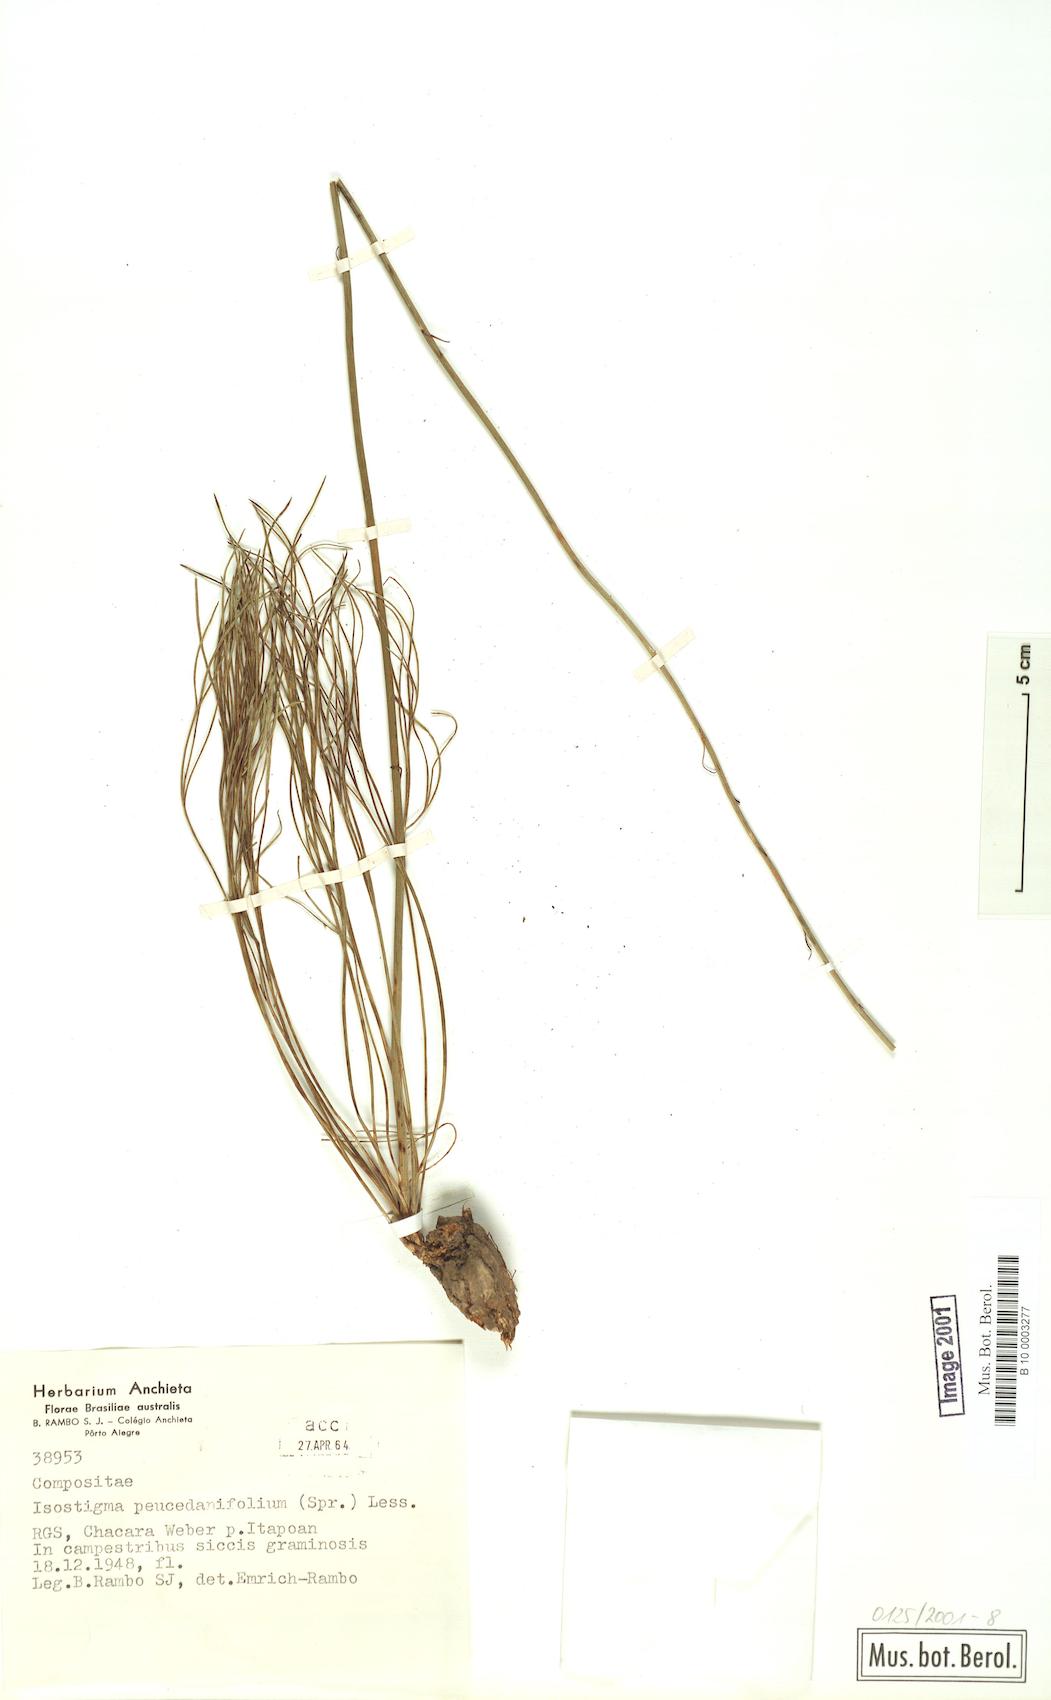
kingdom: Plantae
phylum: Tracheophyta
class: Magnoliopsida
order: Asterales
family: Asteraceae
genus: Isostigma
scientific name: Isostigma peucedanifolium
